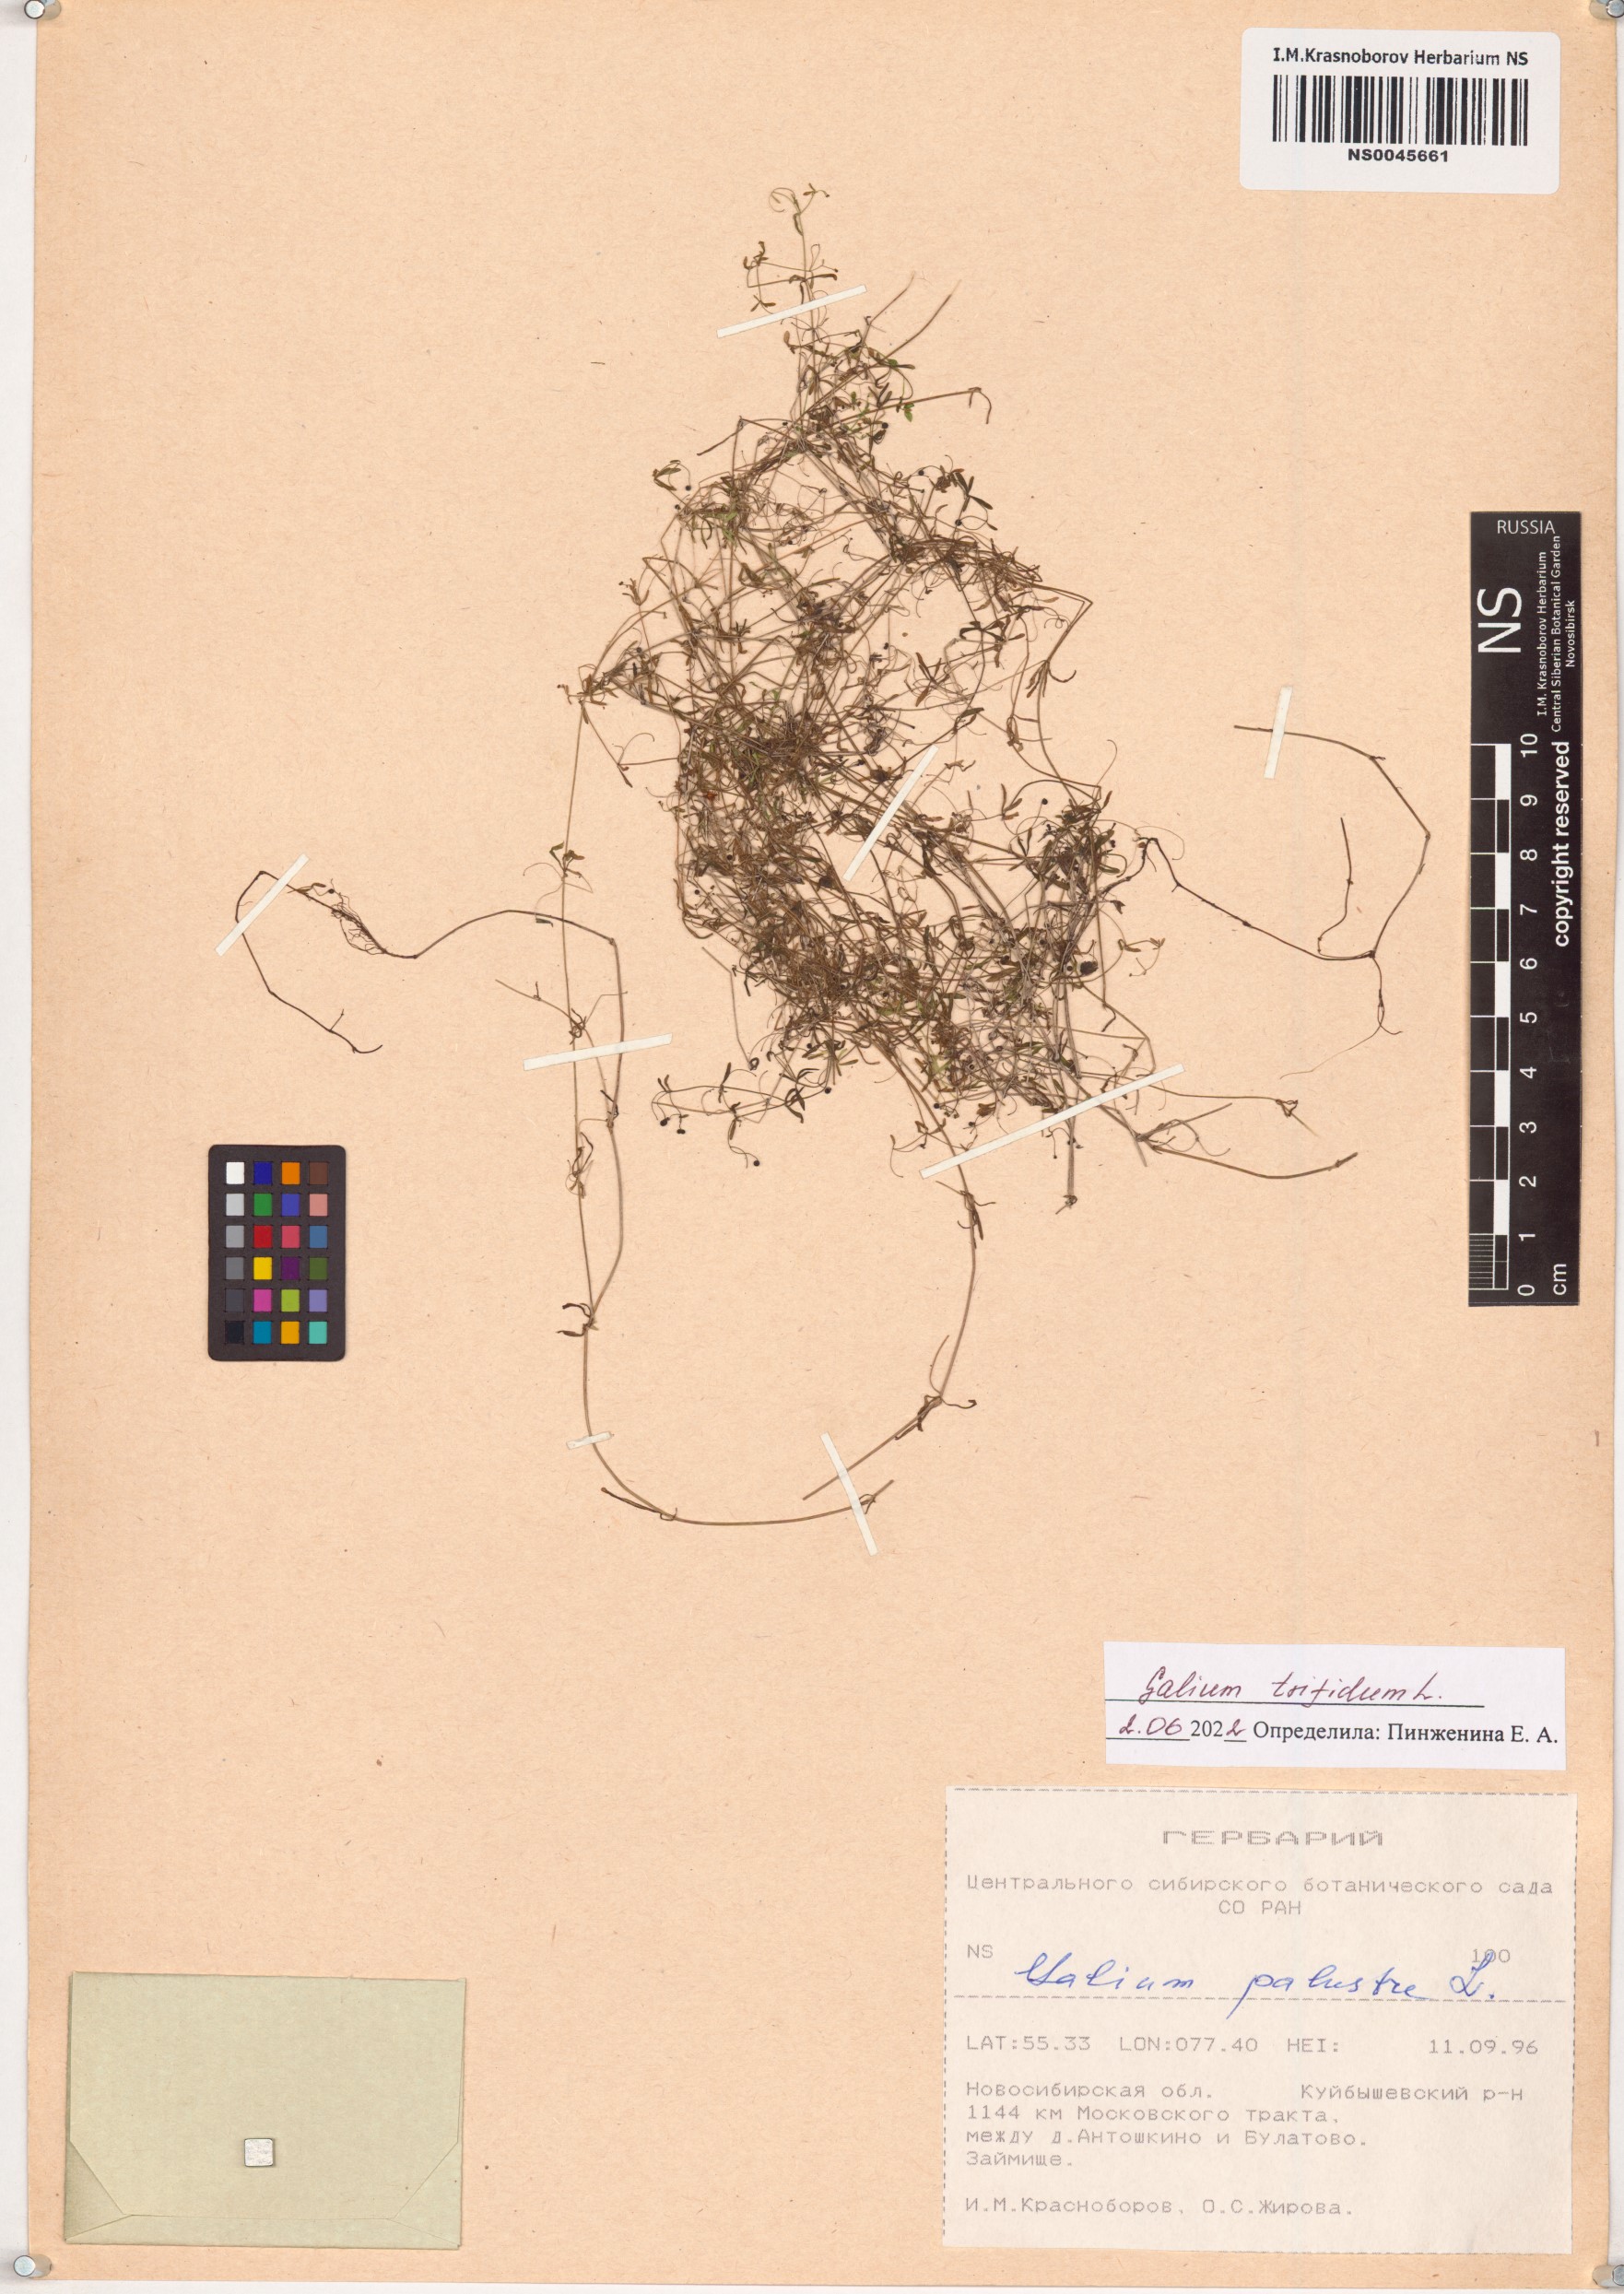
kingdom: Plantae
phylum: Tracheophyta
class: Magnoliopsida
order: Gentianales
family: Rubiaceae
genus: Galium
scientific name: Galium trifidum
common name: Small bedstraw
